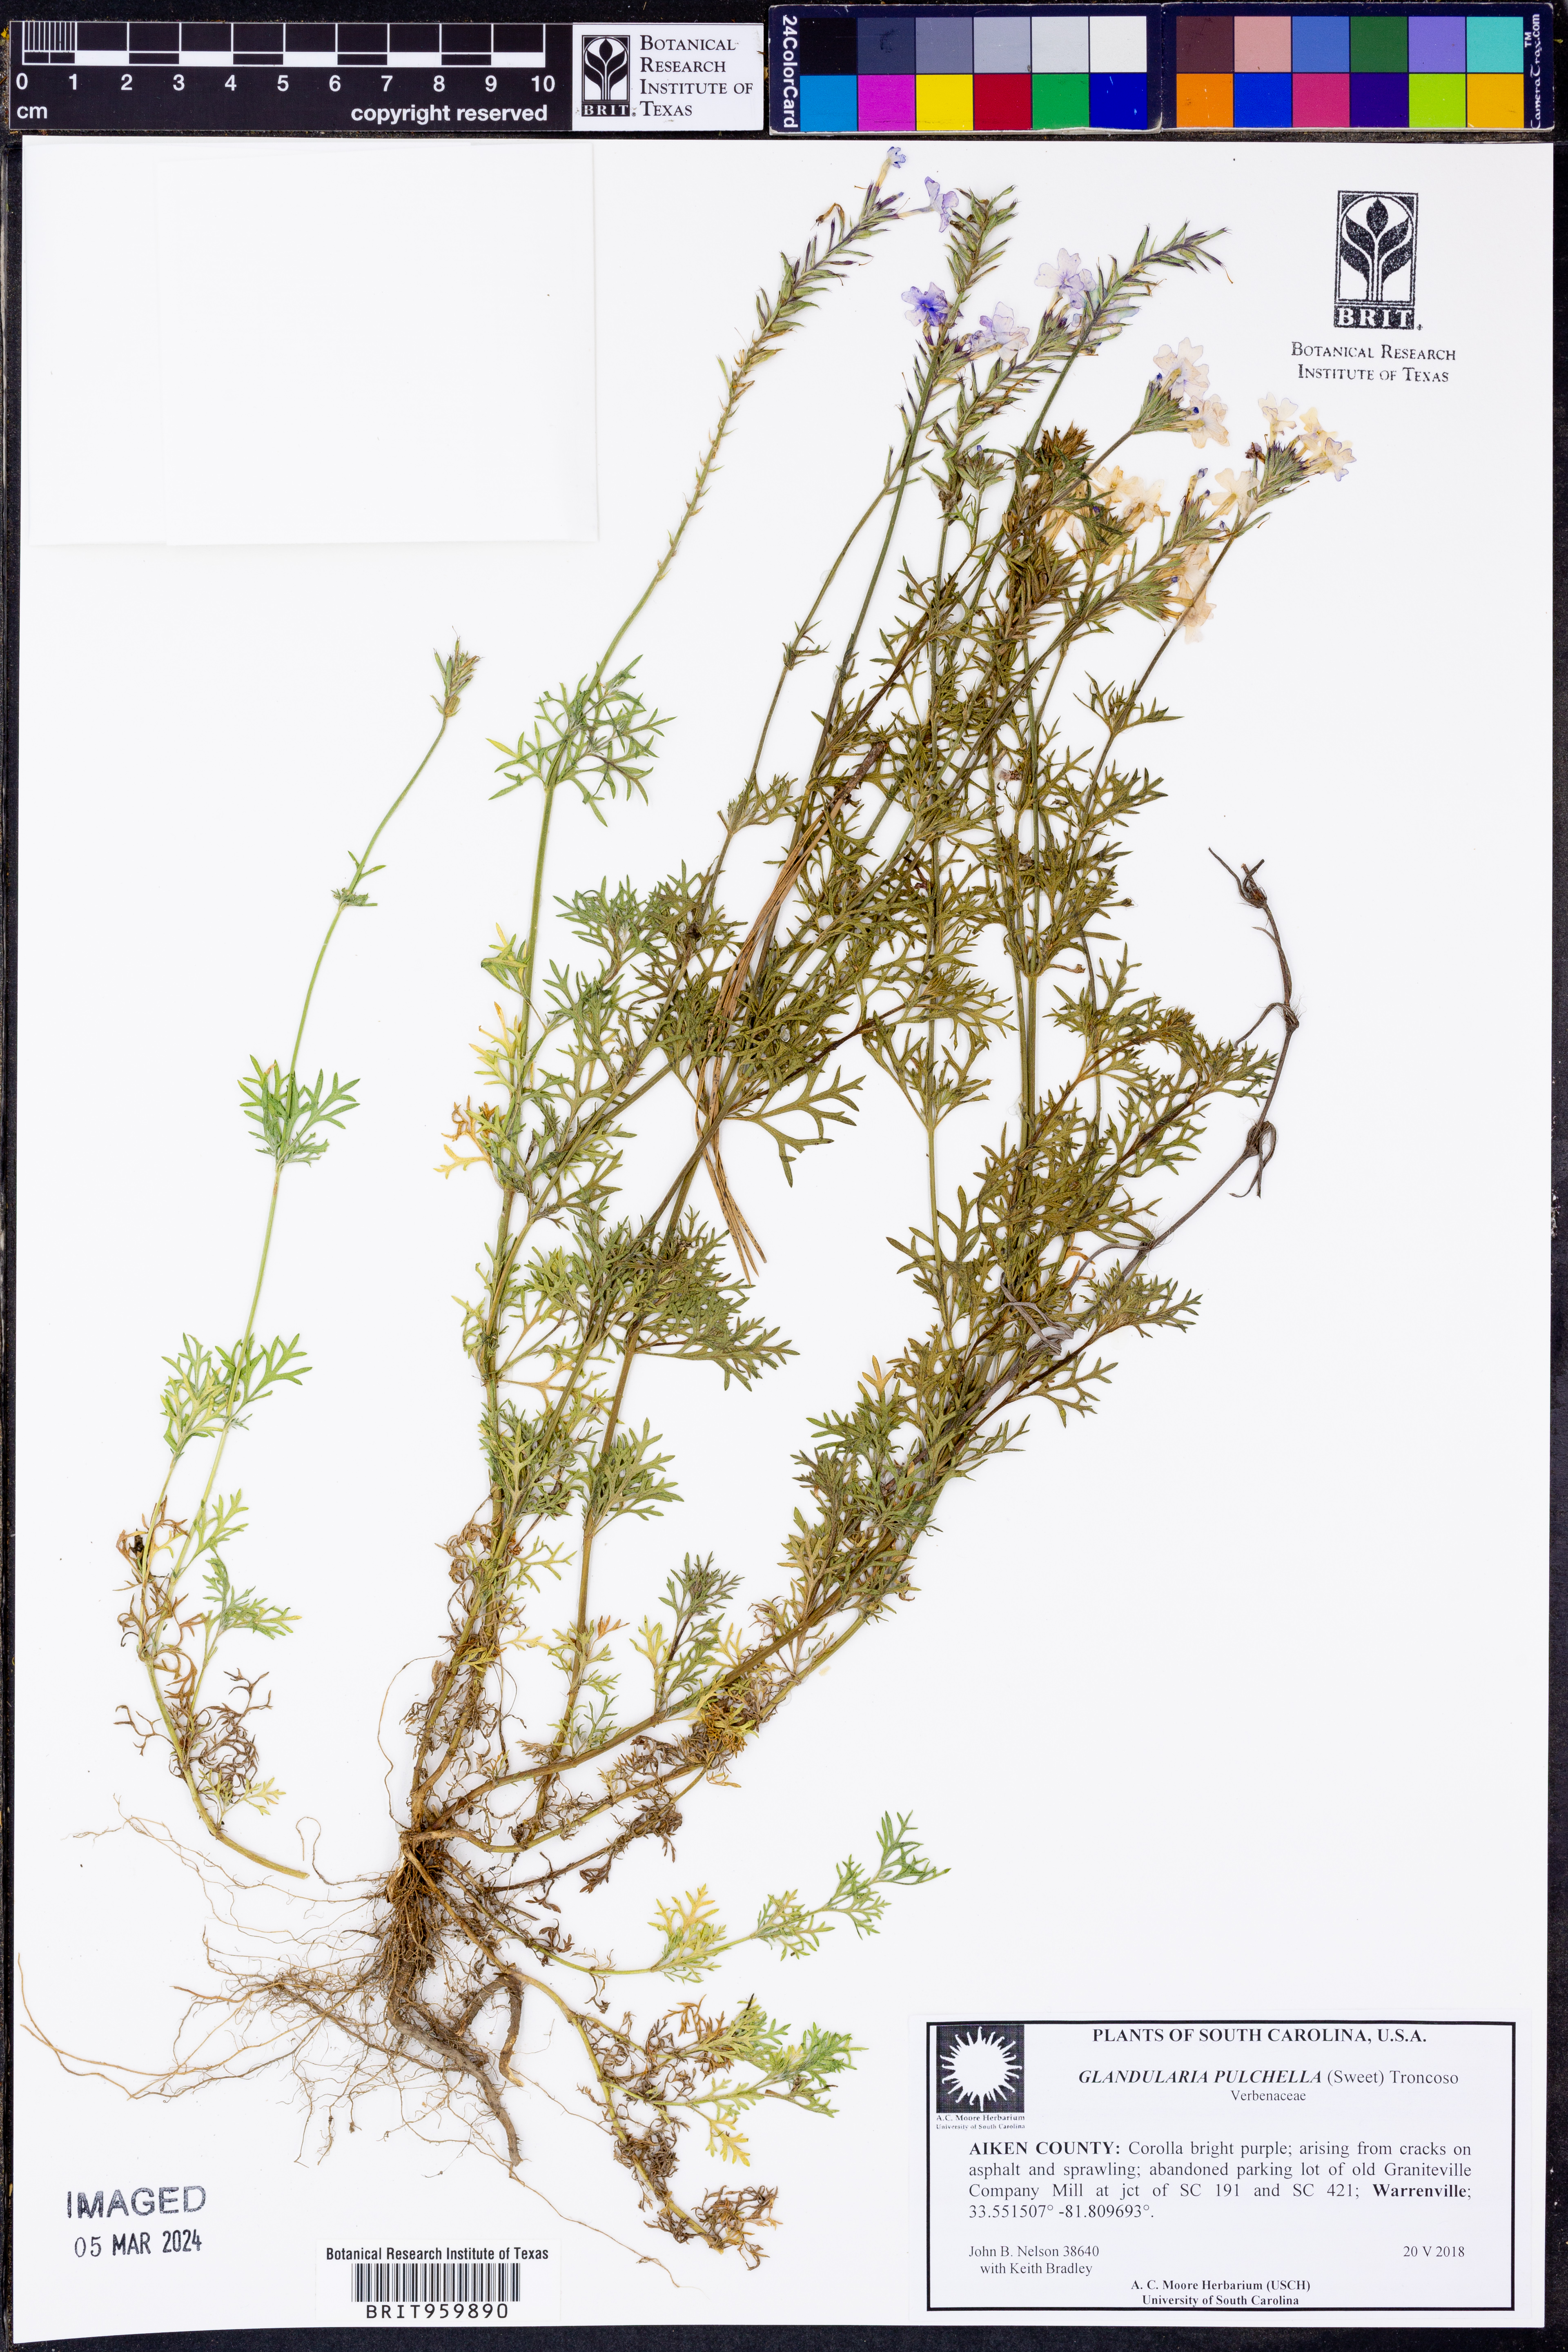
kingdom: Plantae
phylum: Tracheophyta
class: Magnoliopsida
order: Lamiales
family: Verbenaceae
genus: Verbena
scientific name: Verbena tenera
